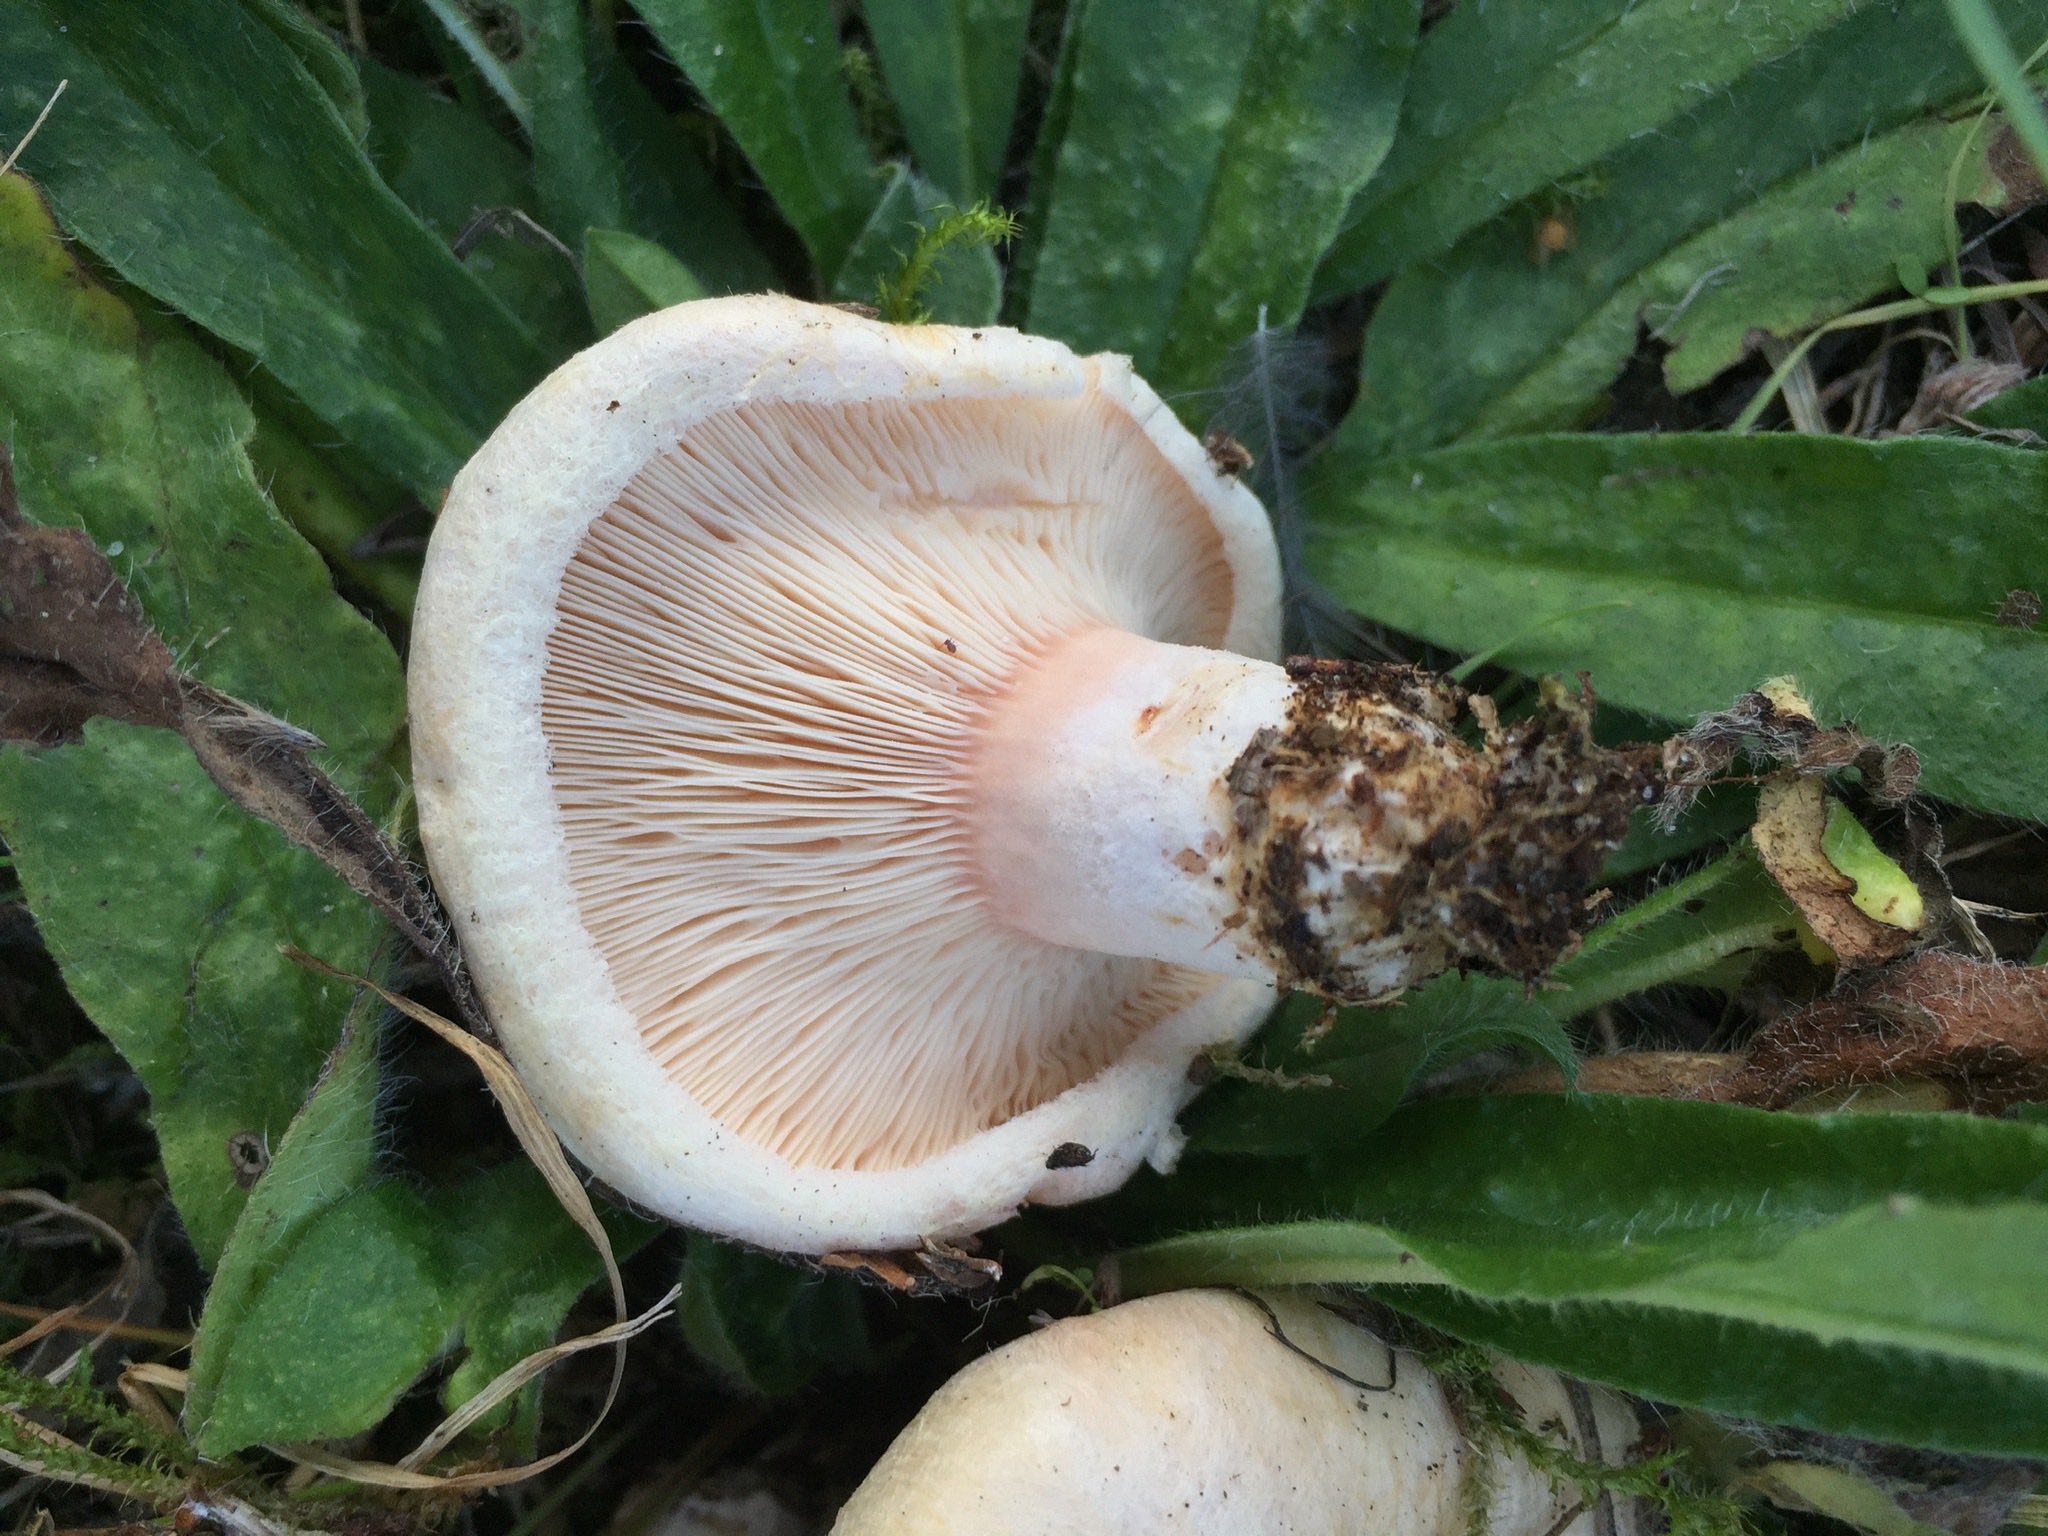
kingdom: Fungi
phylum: Basidiomycota
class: Agaricomycetes
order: Russulales
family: Russulaceae
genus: Lactarius
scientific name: Lactarius pubescens
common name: dunet mælkehat
